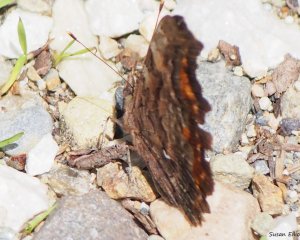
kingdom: Animalia
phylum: Arthropoda
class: Insecta
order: Lepidoptera
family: Nymphalidae
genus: Polygonia
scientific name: Polygonia
